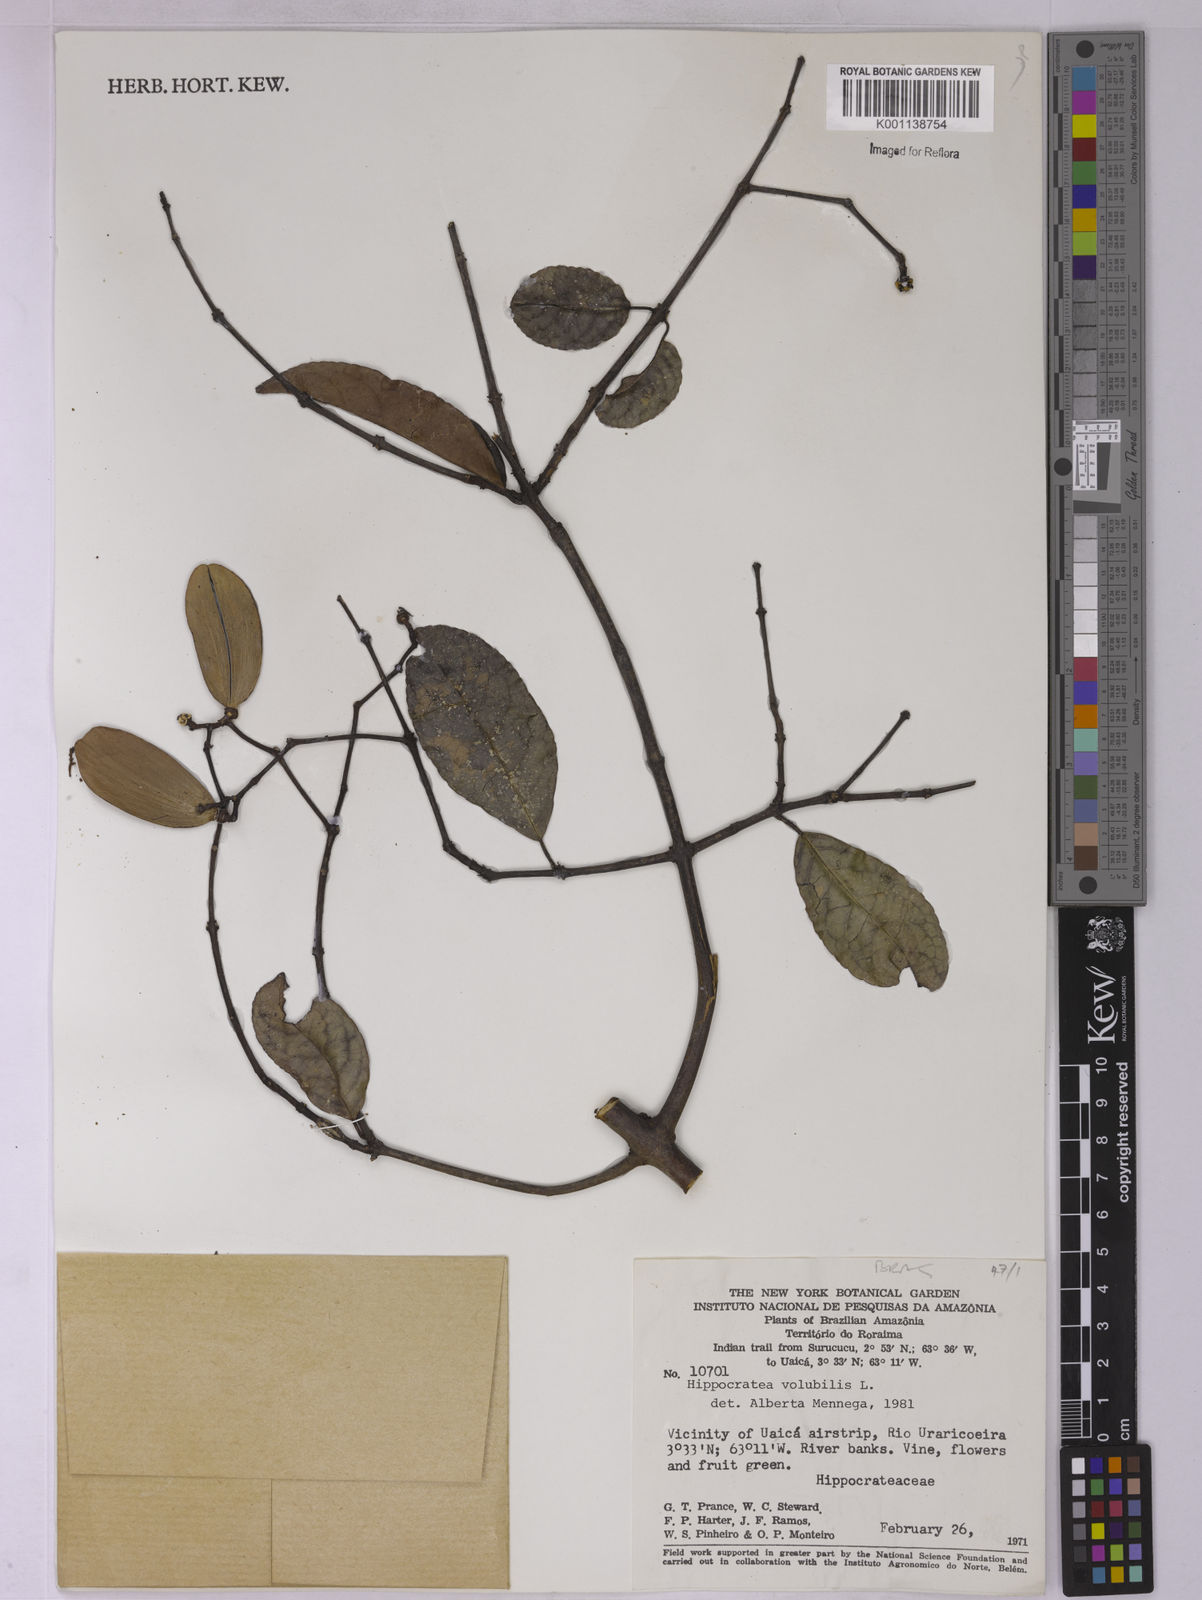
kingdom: Plantae
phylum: Tracheophyta
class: Magnoliopsida
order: Celastrales
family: Celastraceae
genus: Hippocratea
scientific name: Hippocratea volubilis
